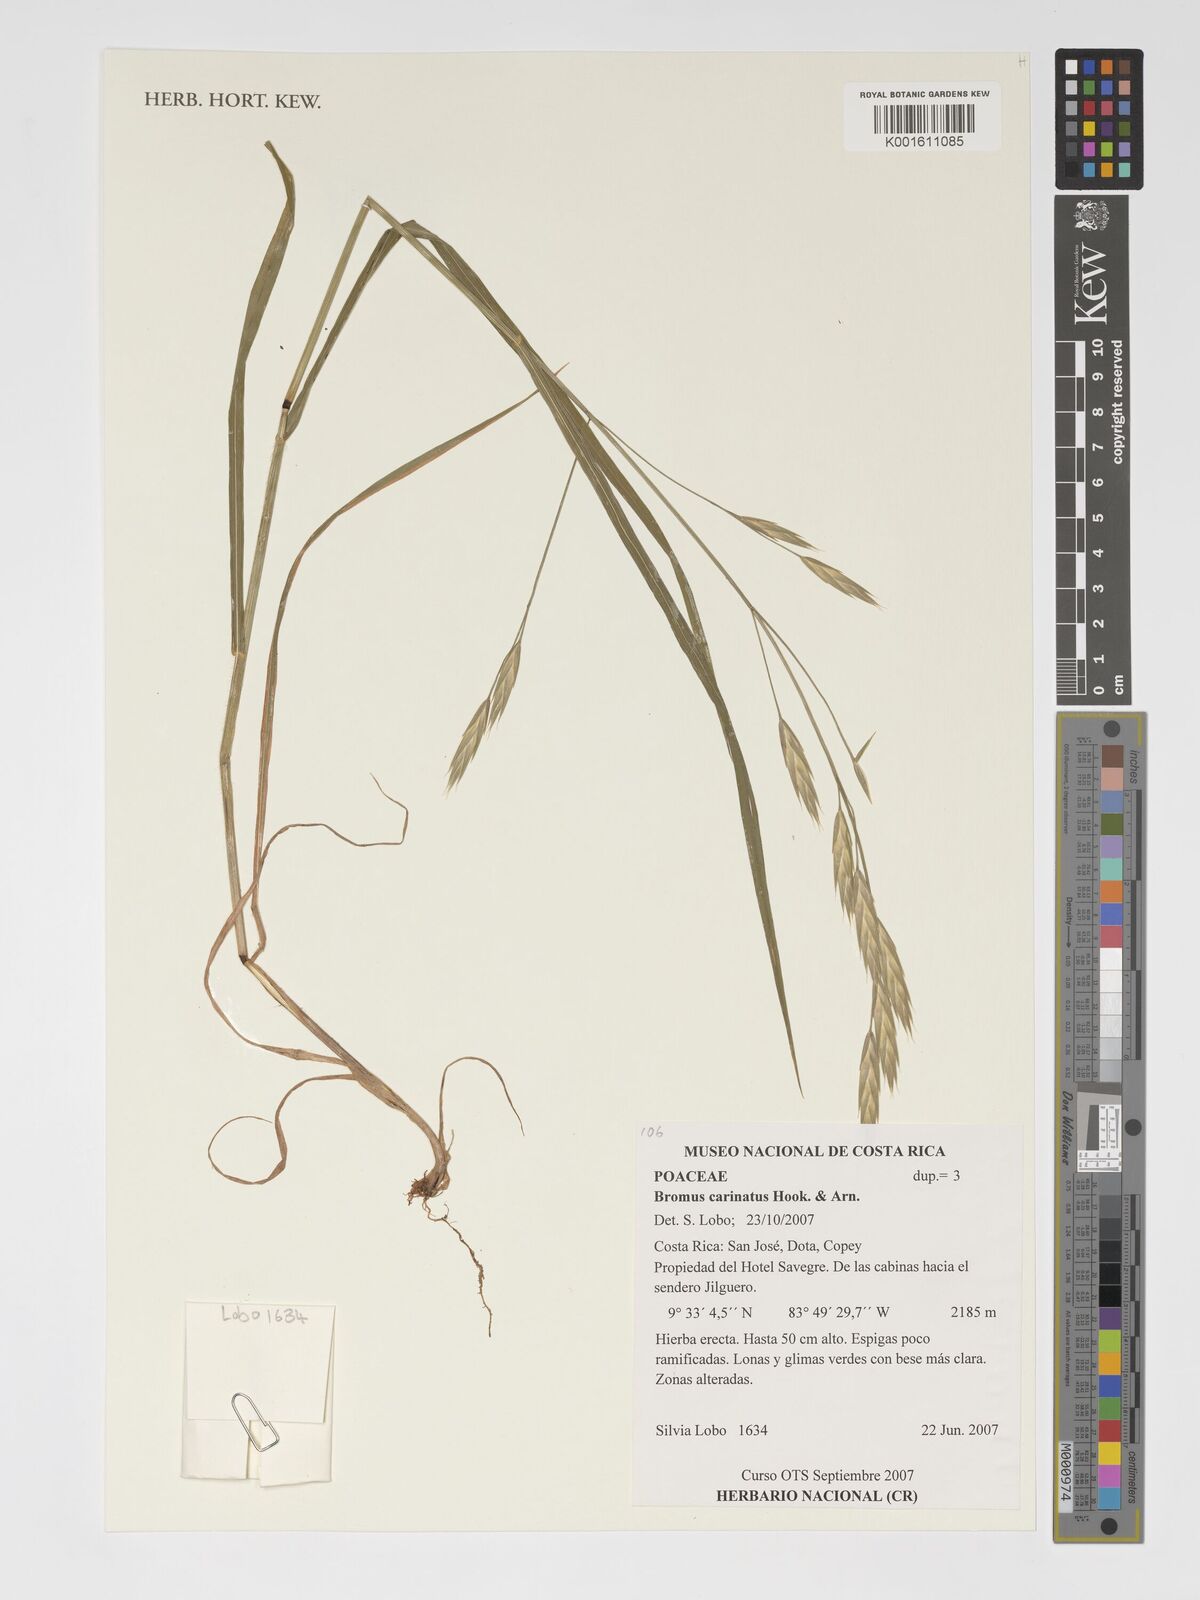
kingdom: Plantae
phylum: Tracheophyta
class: Liliopsida
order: Poales
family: Poaceae
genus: Bromus
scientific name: Bromus carinatus
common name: Mountain brome
